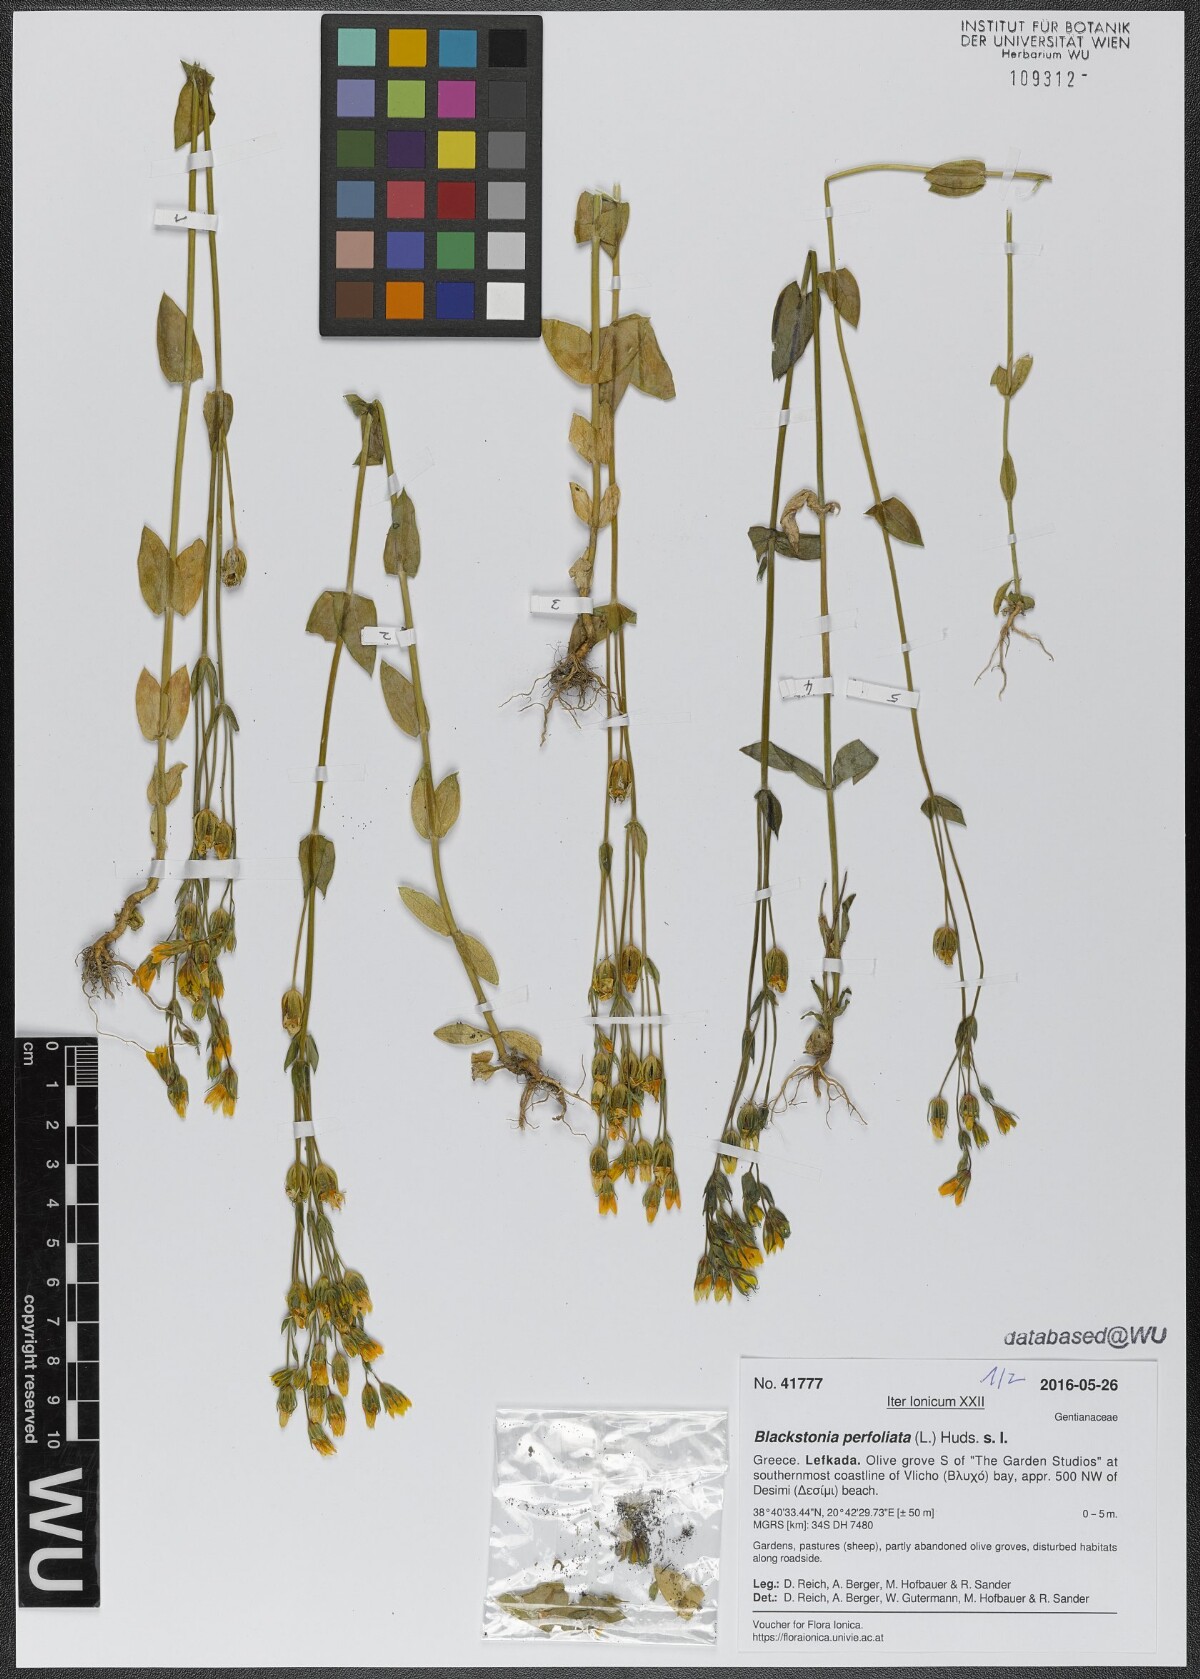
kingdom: Plantae
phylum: Tracheophyta
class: Magnoliopsida
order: Gentianales
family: Gentianaceae
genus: Blackstonia
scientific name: Blackstonia perfoliata
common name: Yellow-wort
